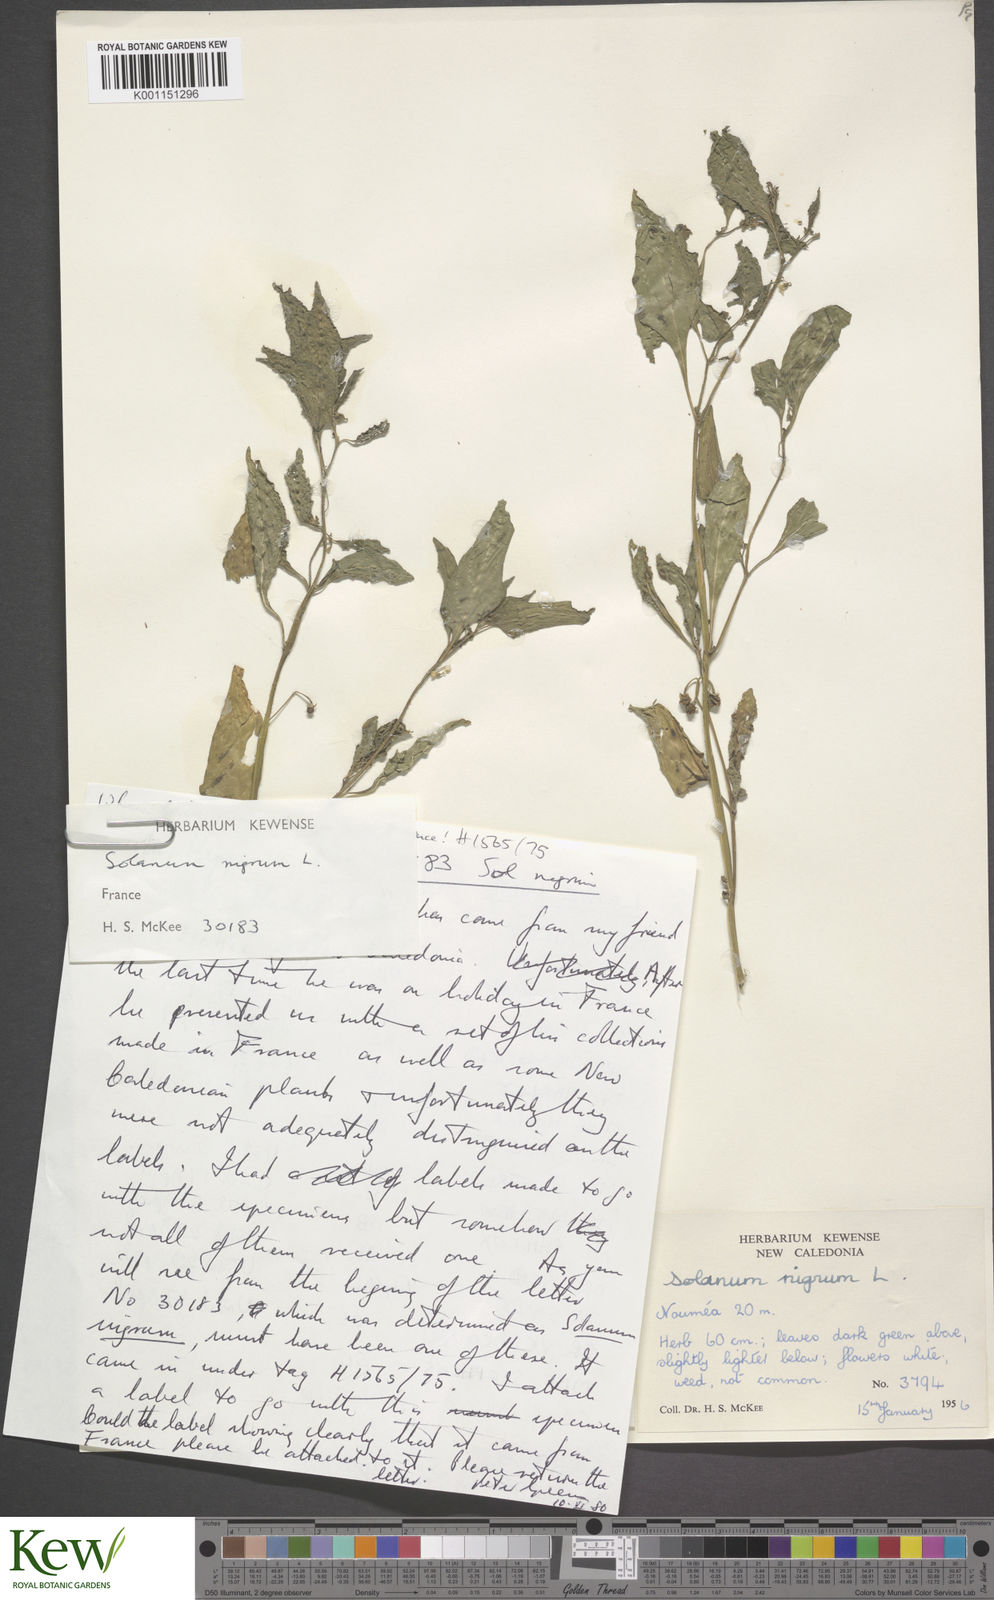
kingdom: Plantae
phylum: Tracheophyta
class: Magnoliopsida
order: Solanales
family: Solanaceae
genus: Solanum
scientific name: Solanum americanum
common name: American black nightshade
